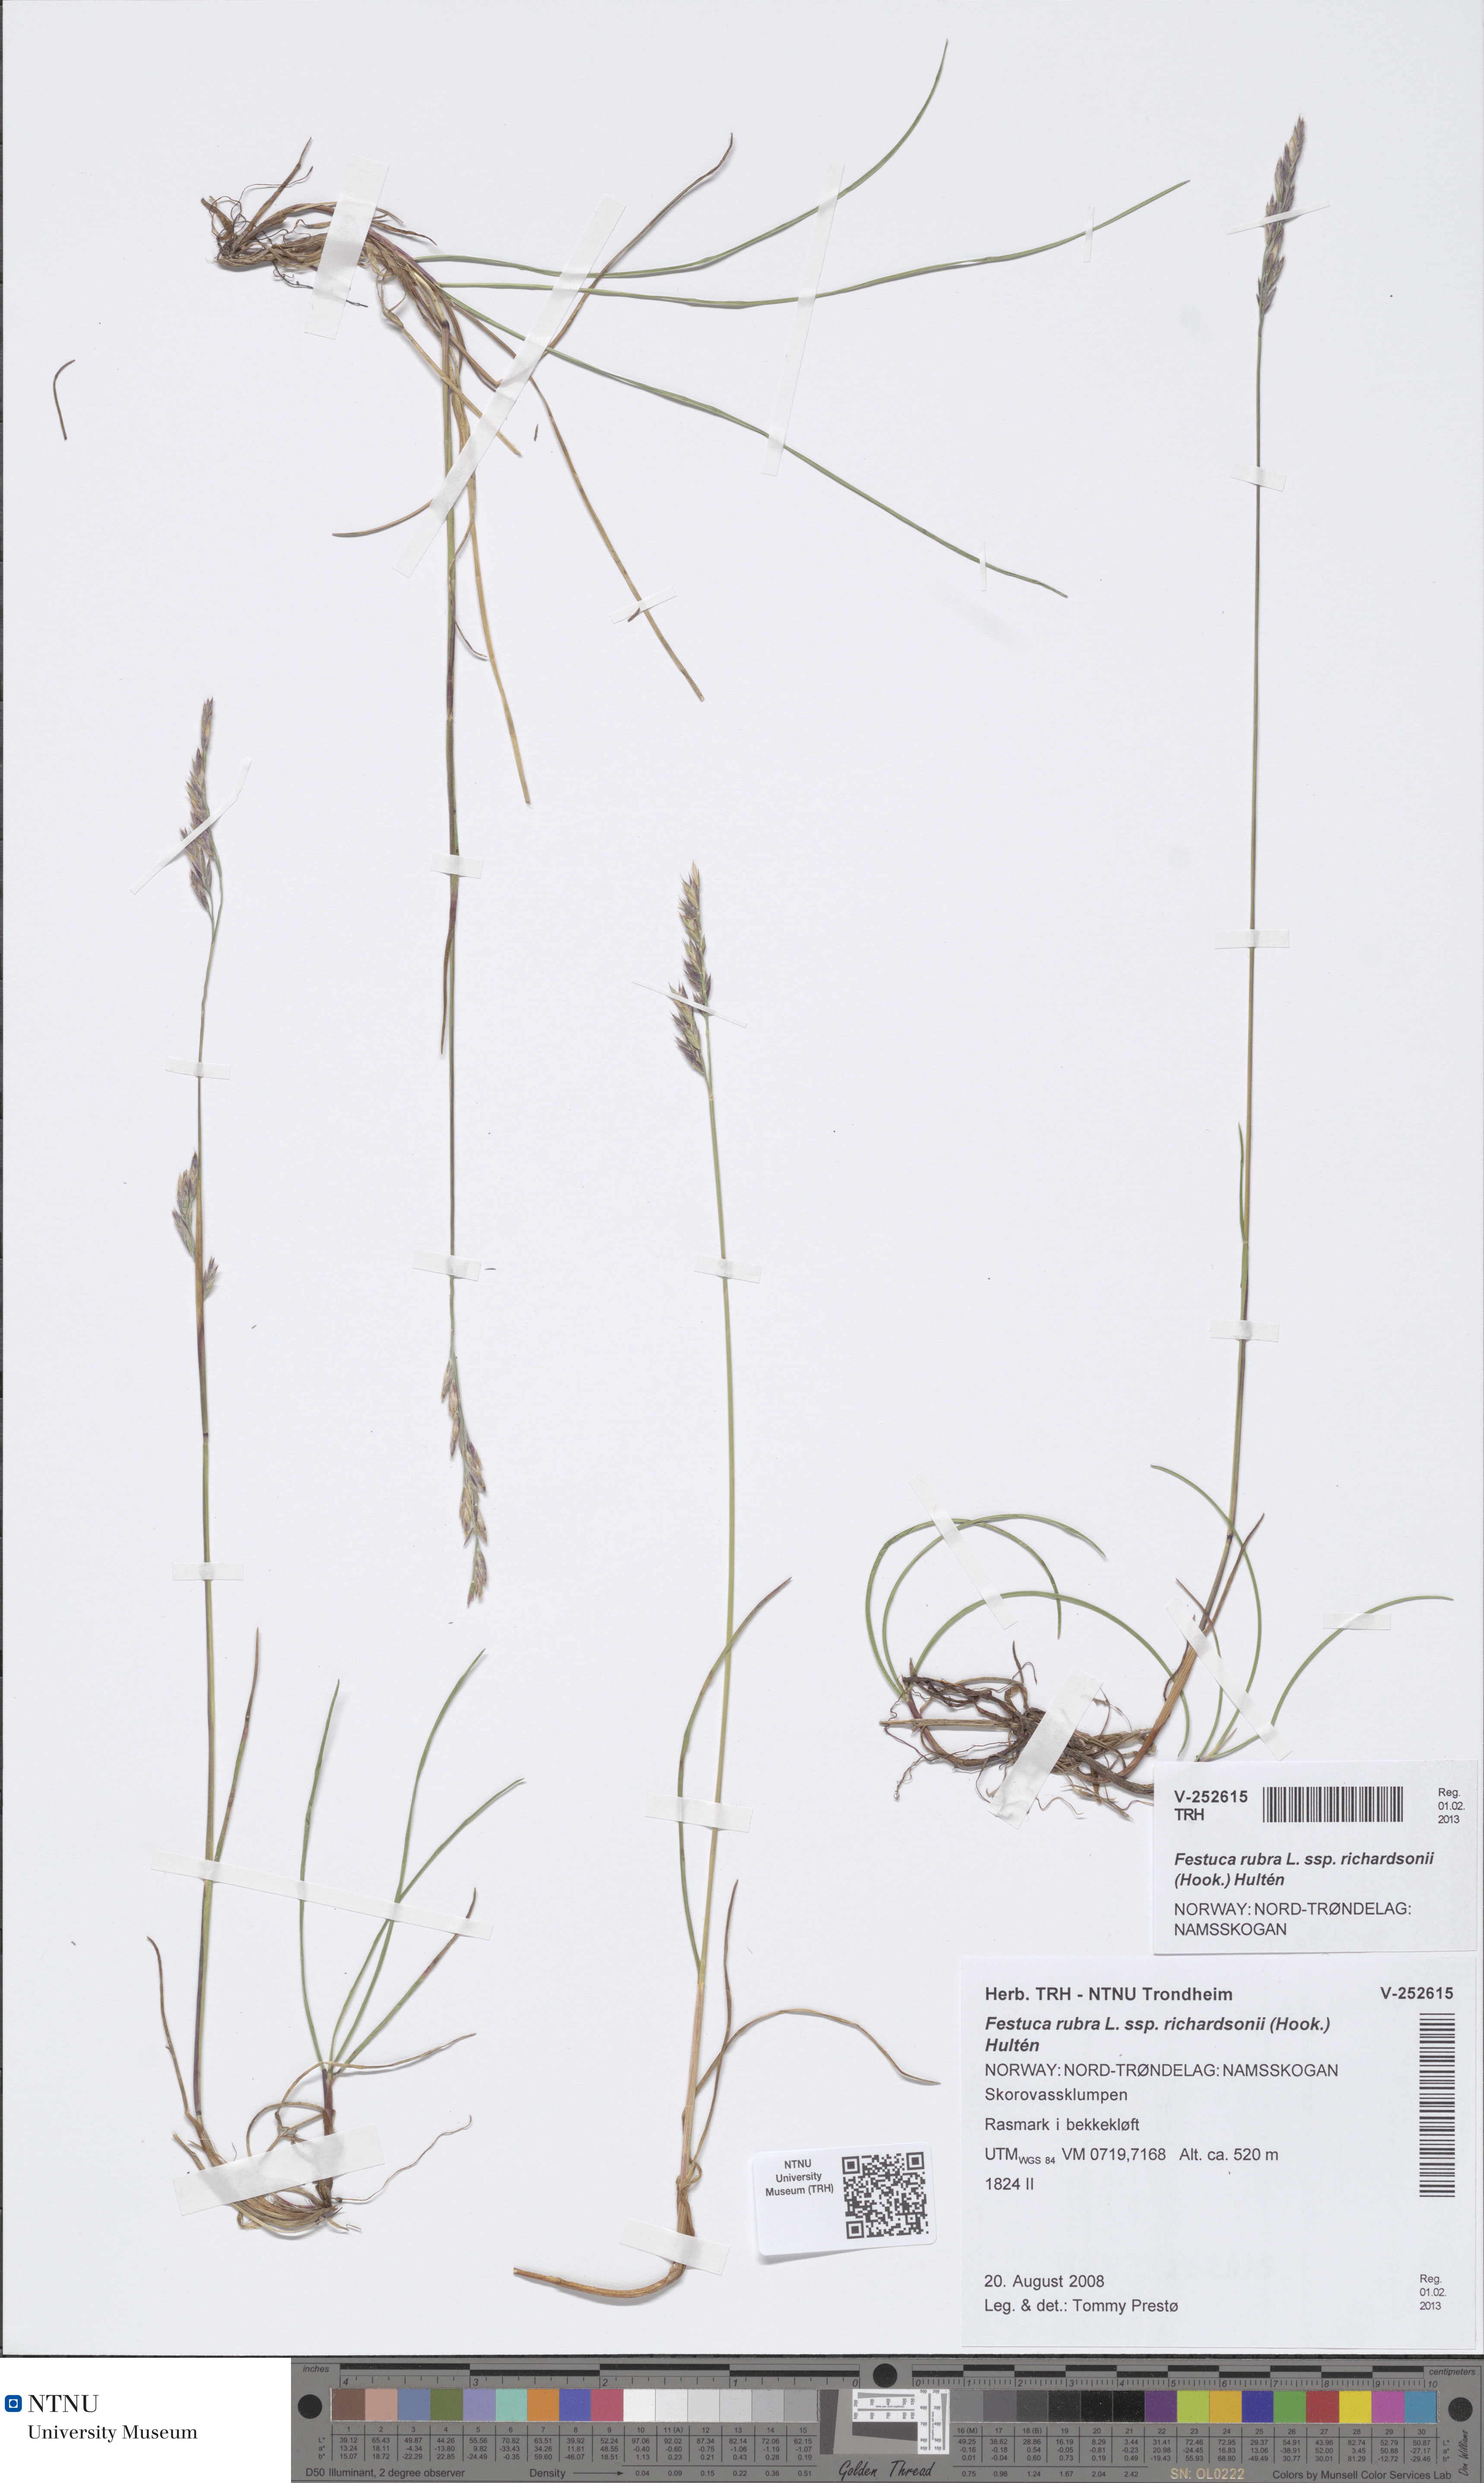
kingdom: Plantae
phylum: Tracheophyta
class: Liliopsida
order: Poales
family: Poaceae
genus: Festuca
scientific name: Festuca richardsonii
